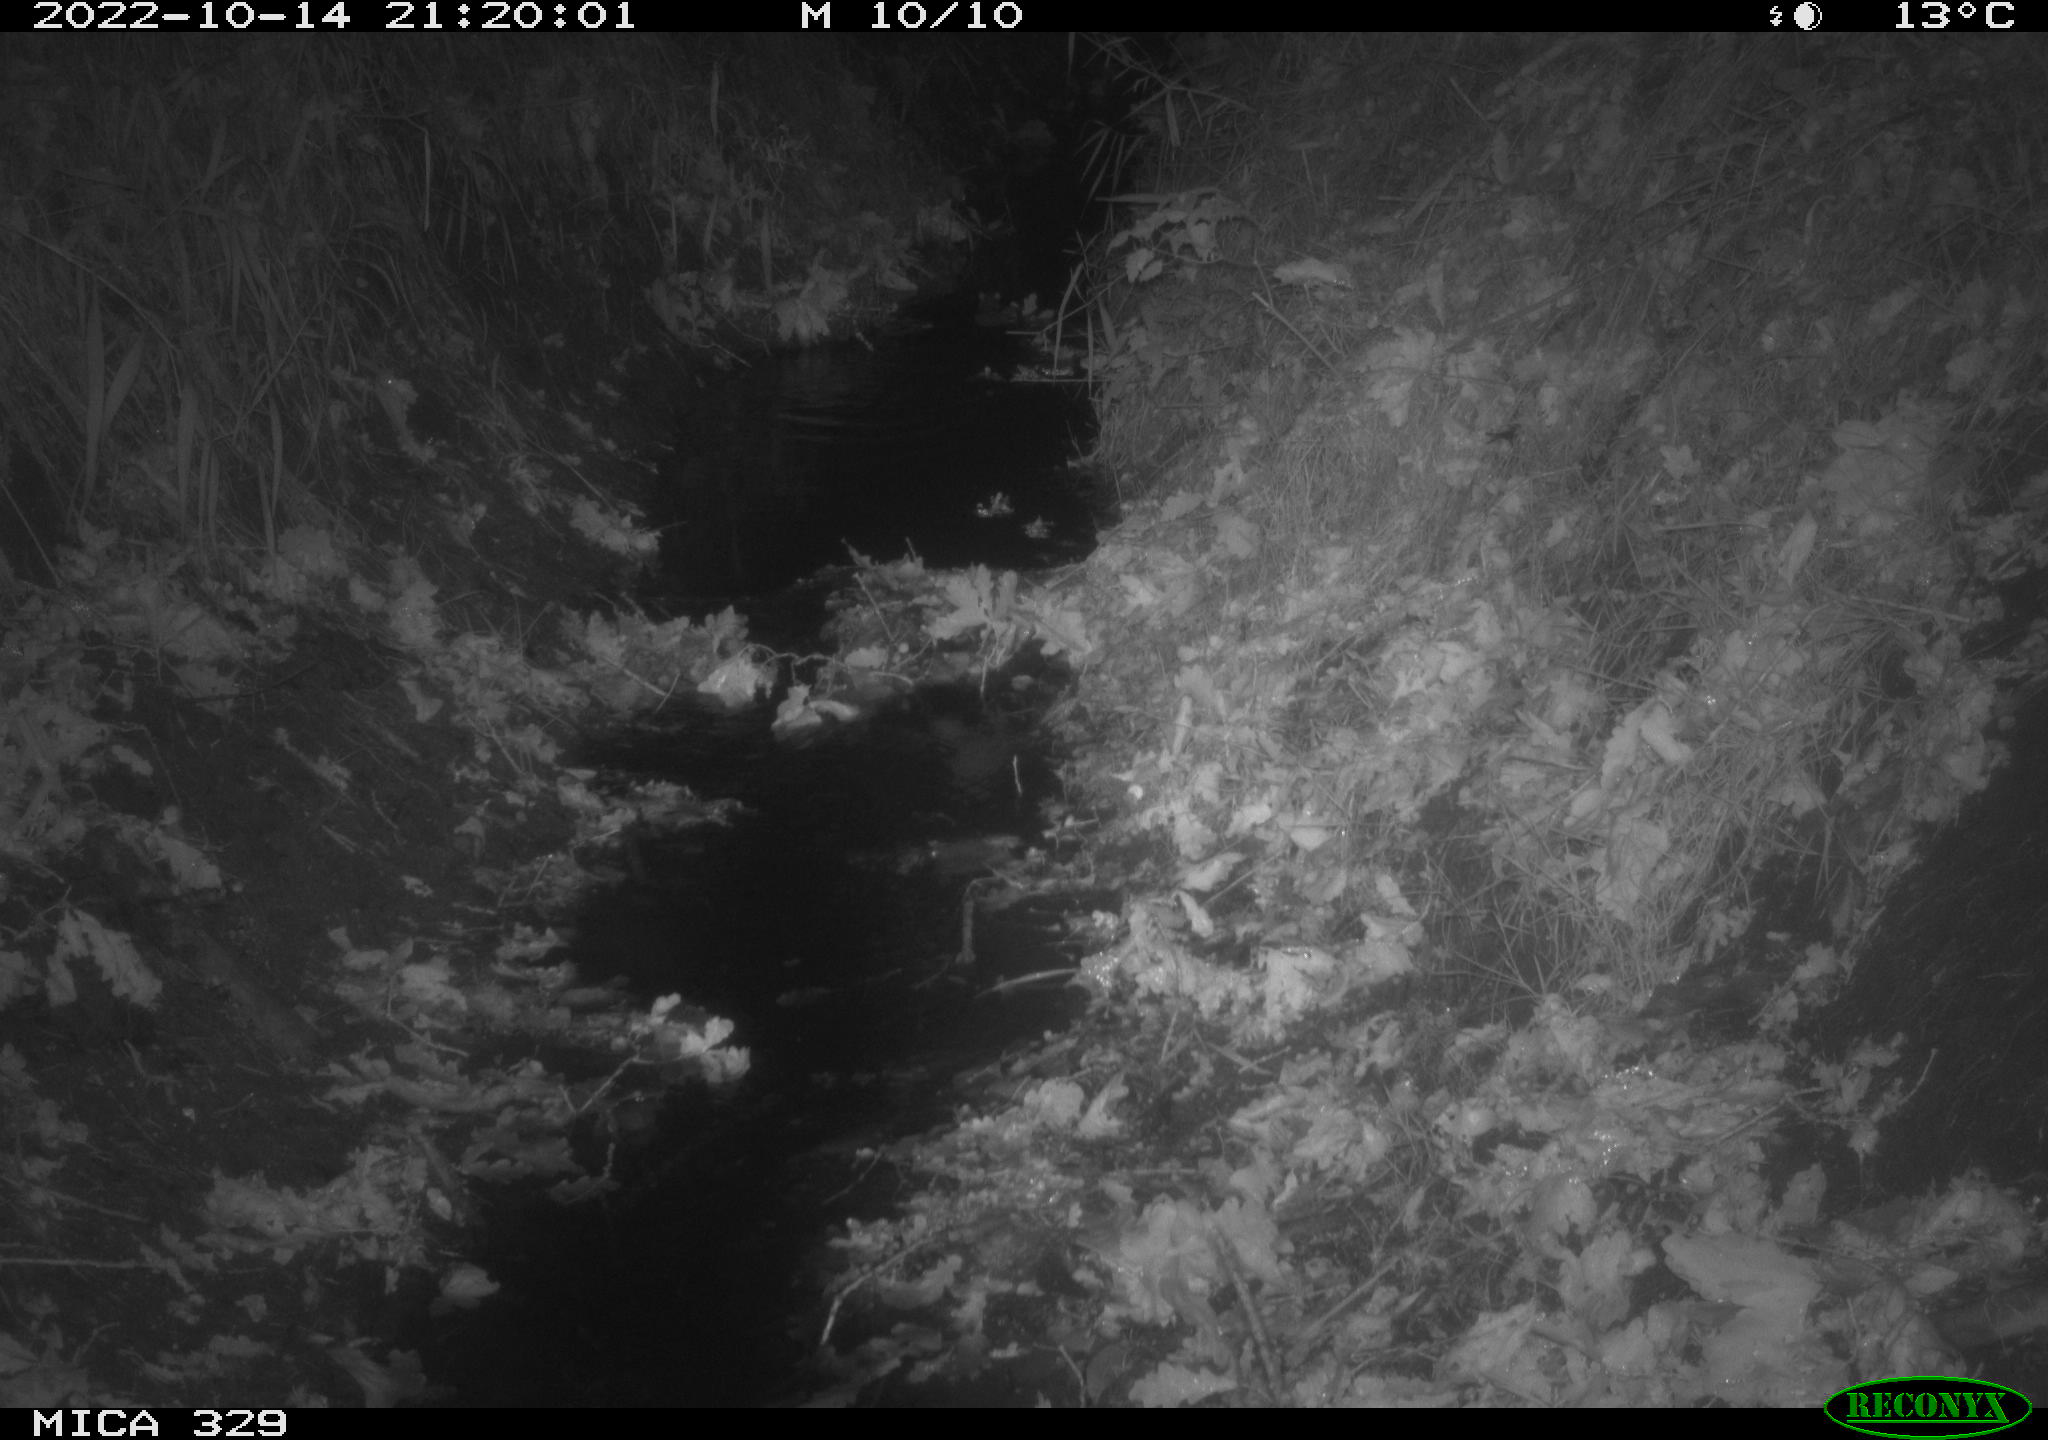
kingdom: Animalia
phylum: Chordata
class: Mammalia
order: Rodentia
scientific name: Rodentia
